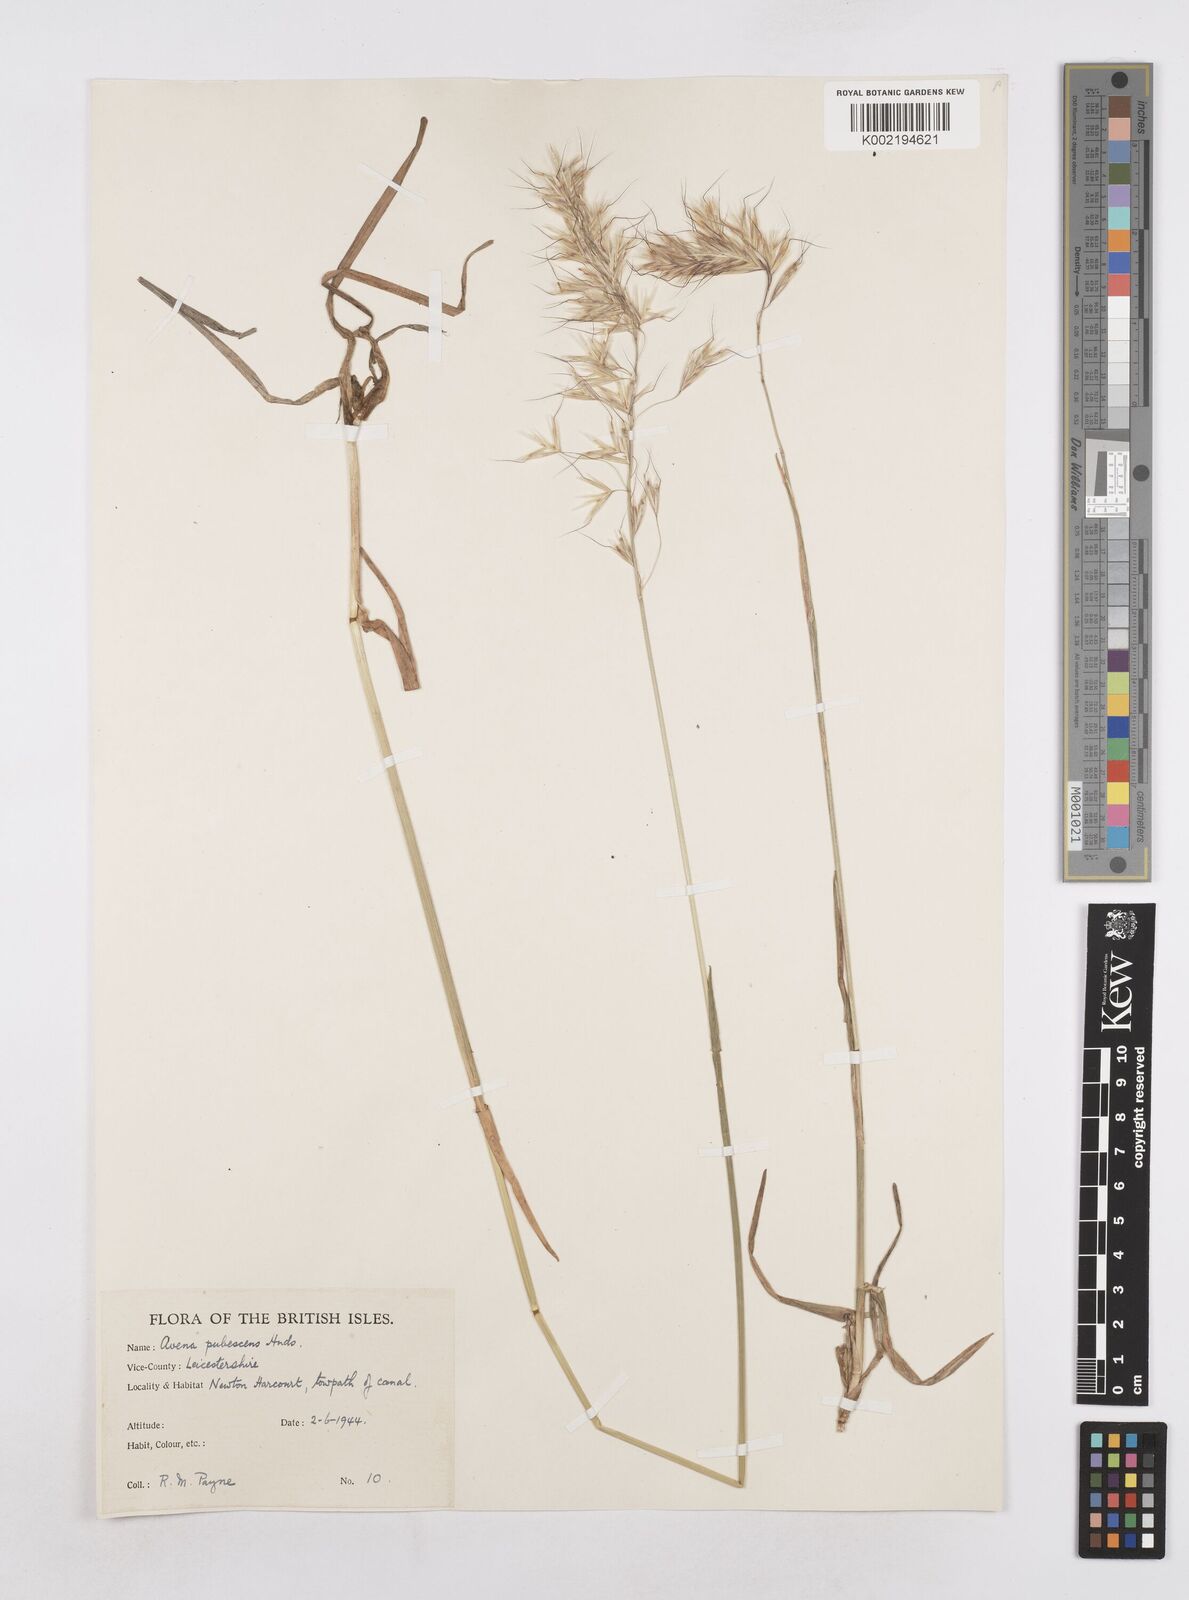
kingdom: Plantae
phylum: Tracheophyta
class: Liliopsida
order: Poales
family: Poaceae
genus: Avenula
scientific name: Avenula pubescens
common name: Downy alpine oatgrass
